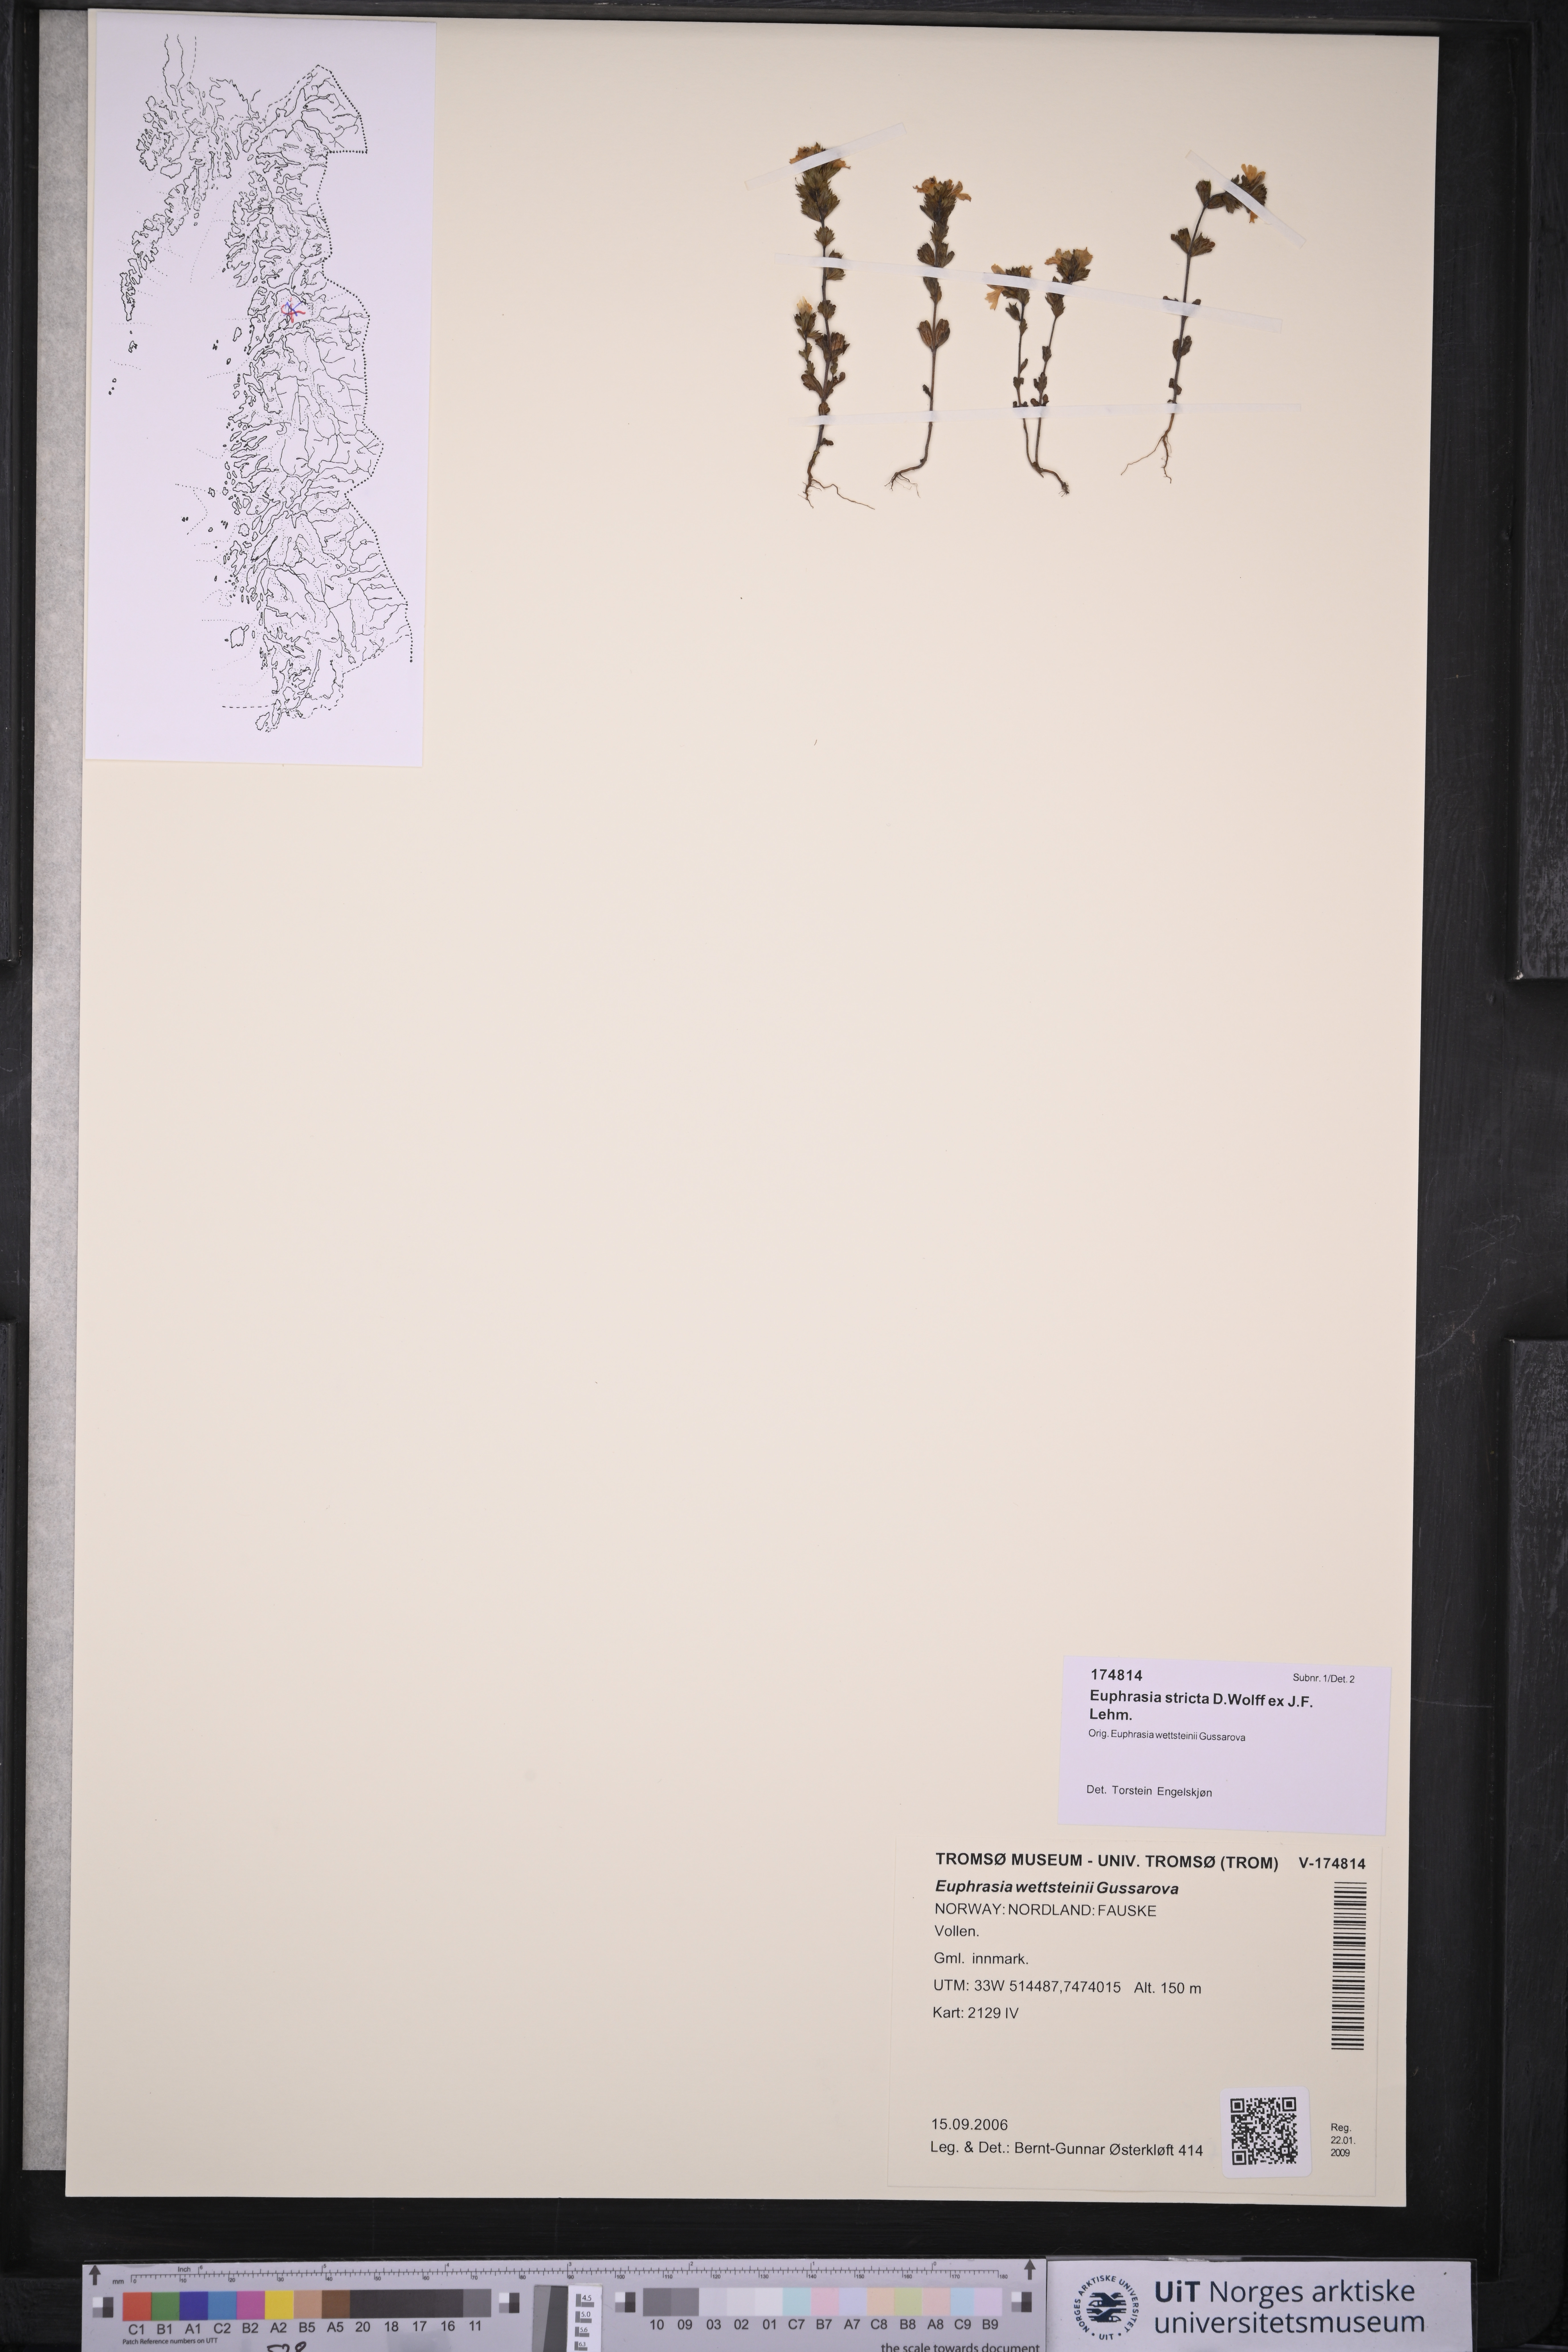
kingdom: Plantae
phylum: Tracheophyta
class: Magnoliopsida
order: Lamiales
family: Orobanchaceae
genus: Euphrasia
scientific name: Euphrasia stricta
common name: Drug eyebright
